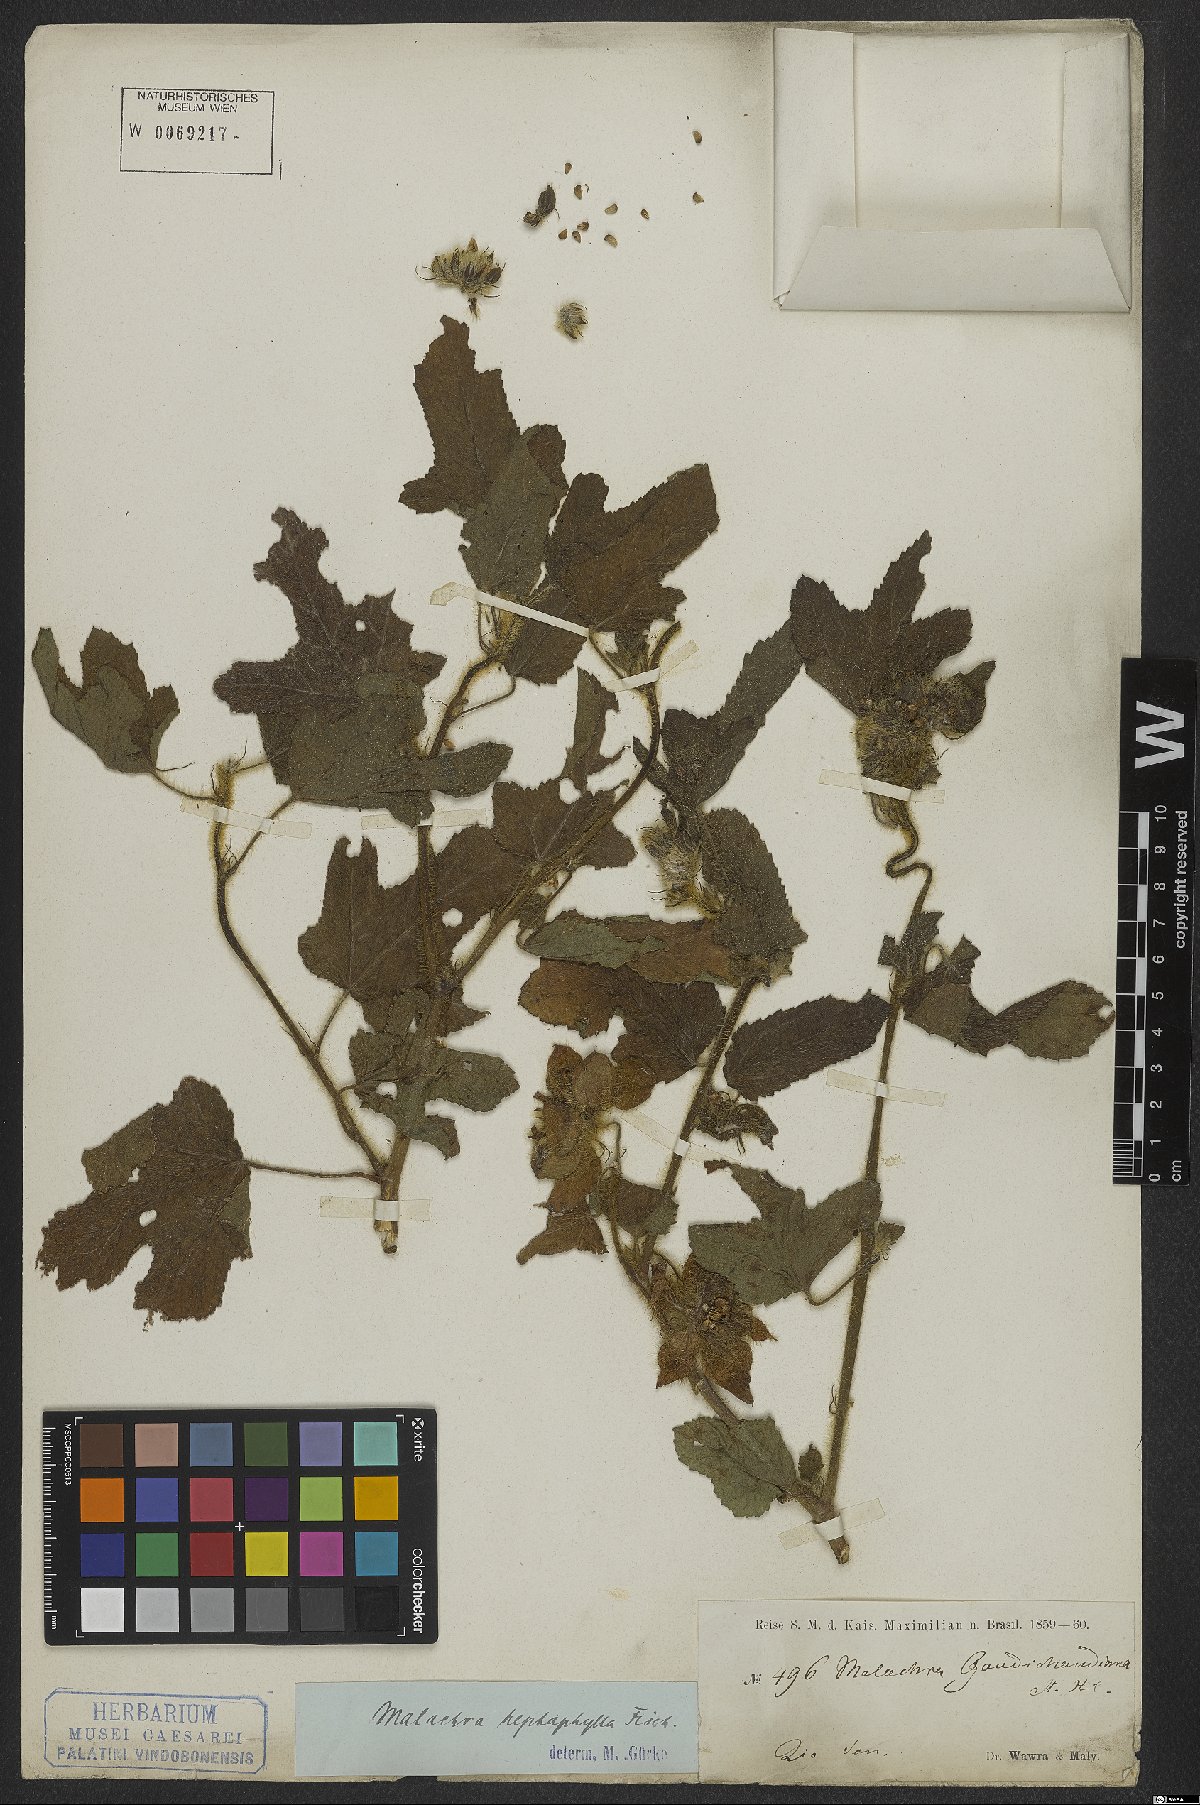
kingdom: Plantae
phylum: Tracheophyta
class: Magnoliopsida
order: Malvales
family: Malvaceae
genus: Malachra
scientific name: Malachra capitata
